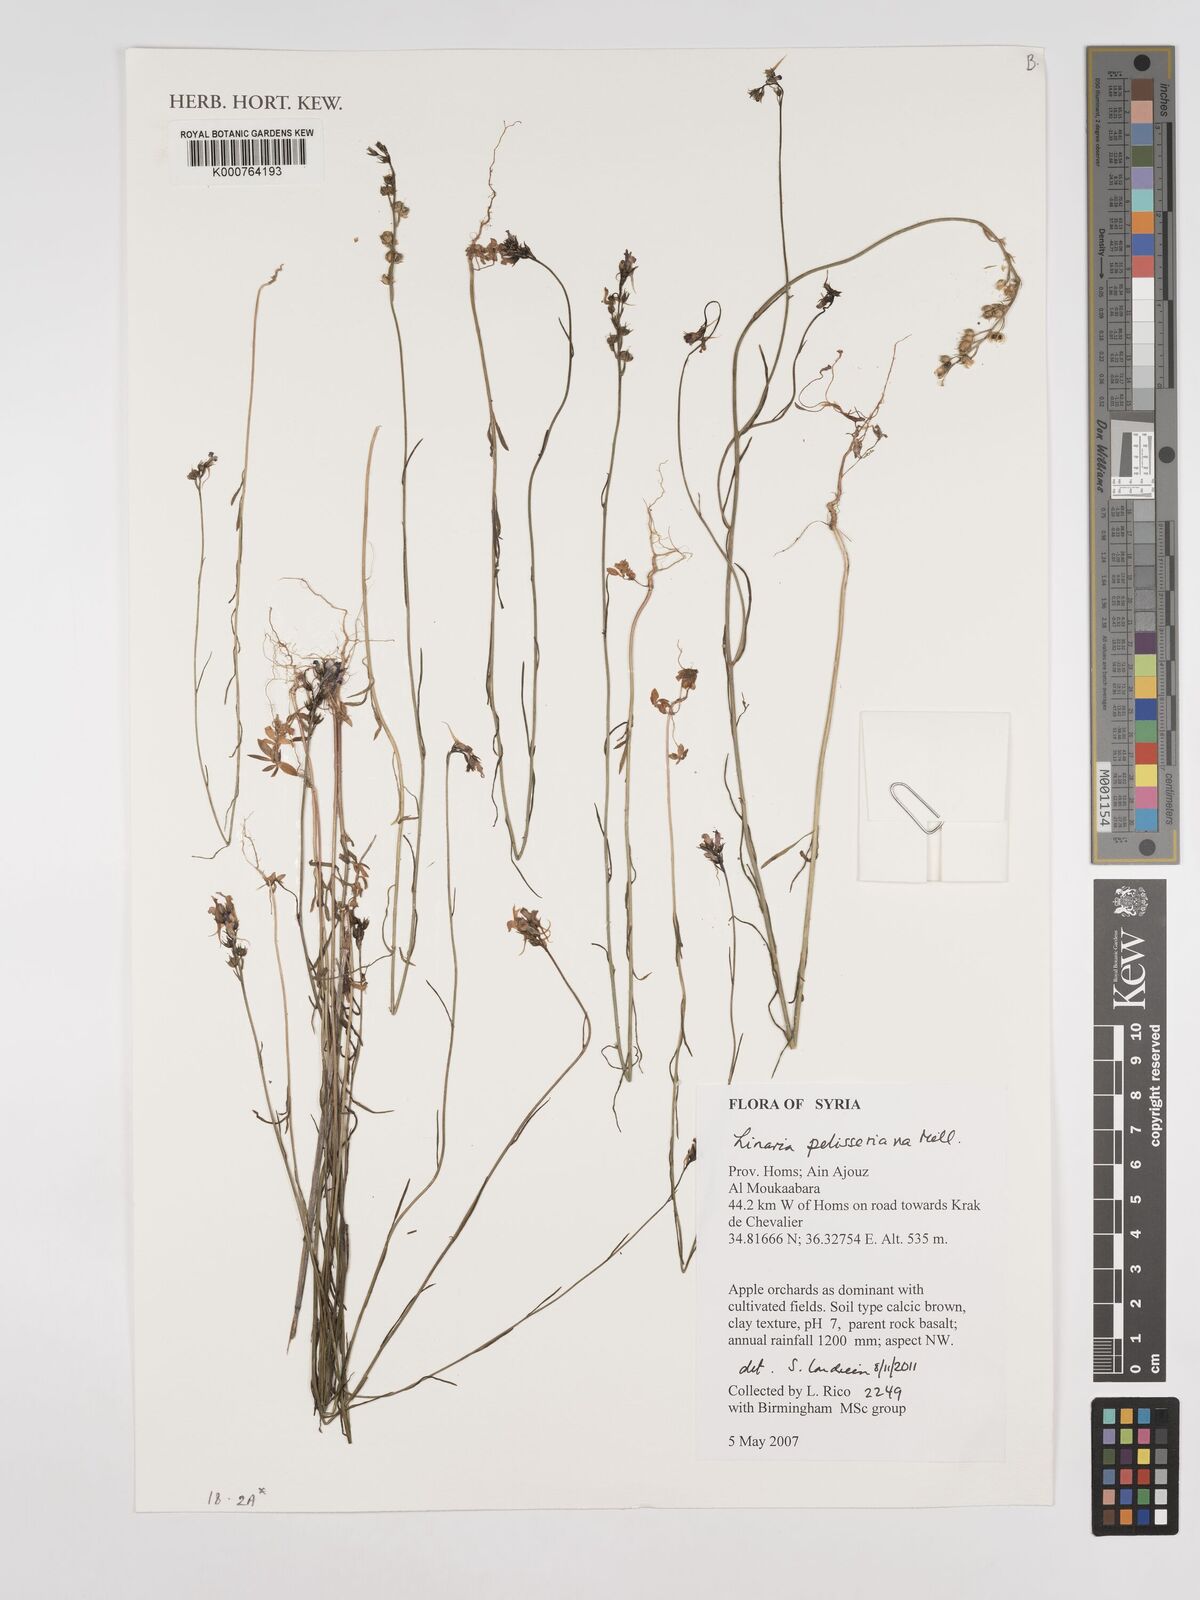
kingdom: Plantae
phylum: Tracheophyta
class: Magnoliopsida
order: Lamiales
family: Plantaginaceae
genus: Linaria
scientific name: Linaria pelisseriana
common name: Jersey toadflax
